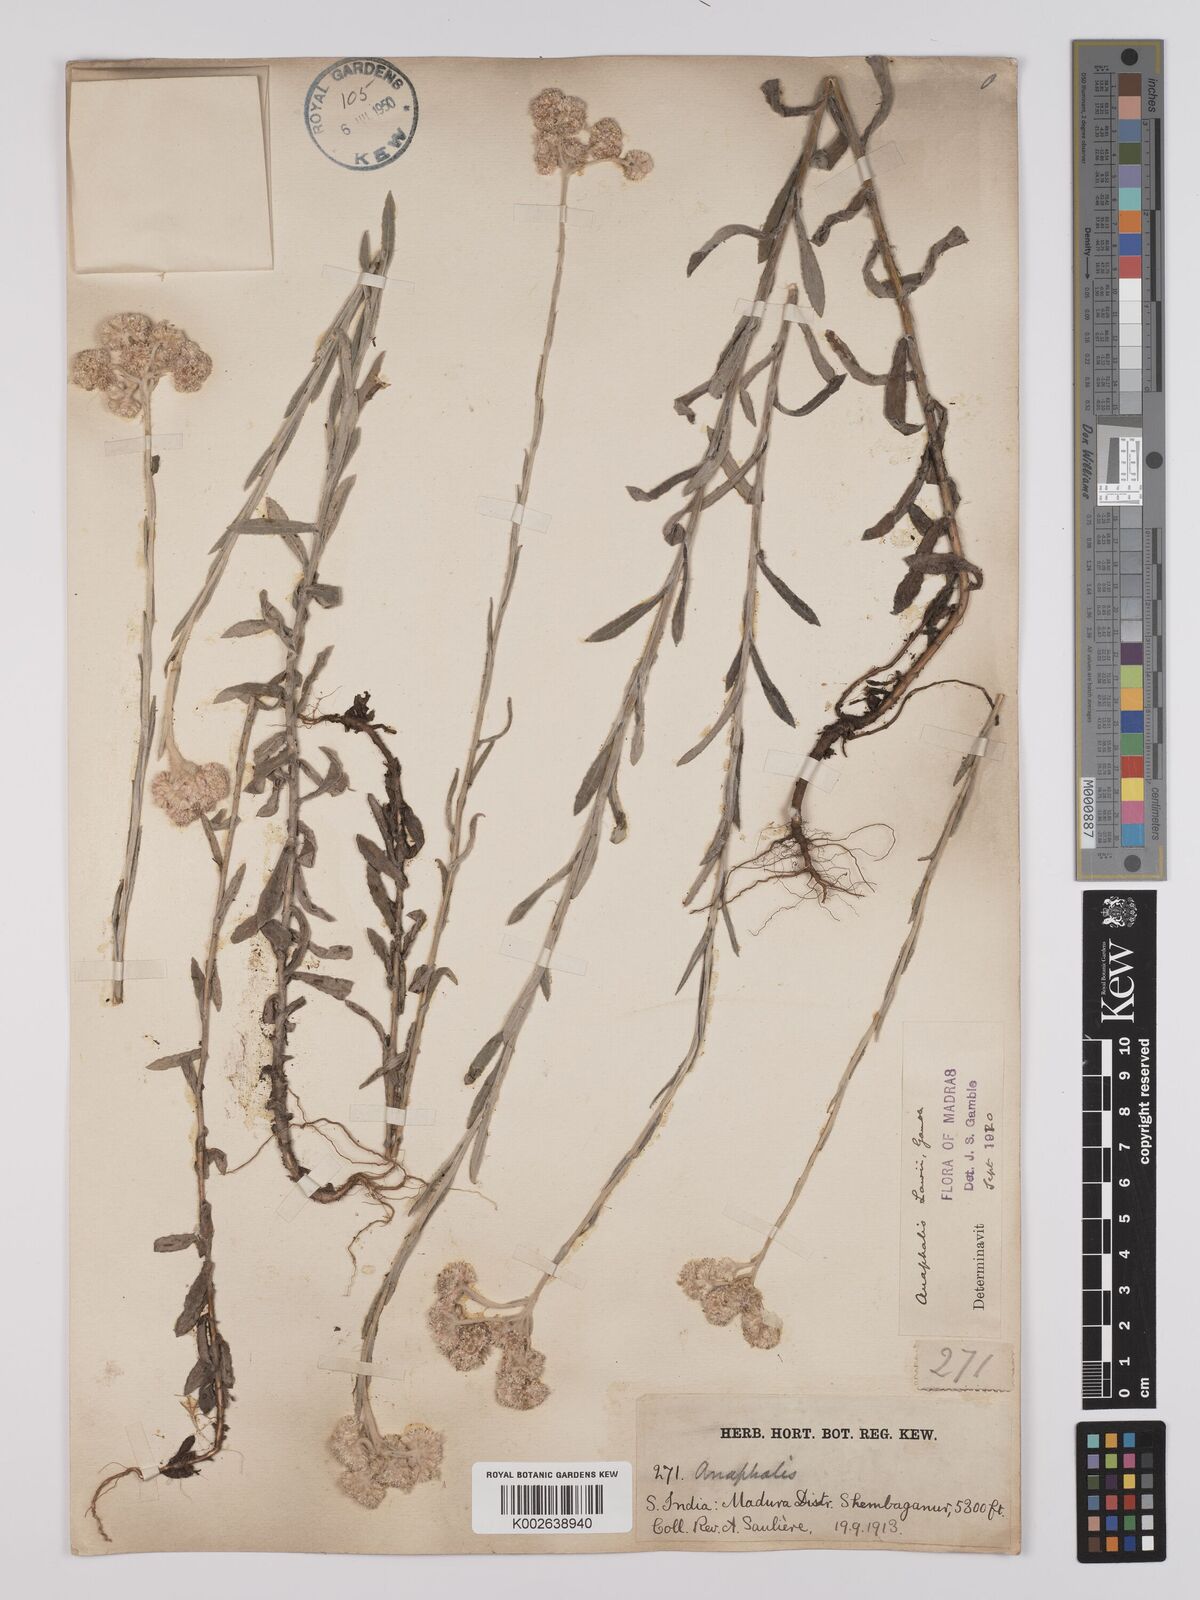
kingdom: Plantae
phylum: Tracheophyta
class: Magnoliopsida
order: Asterales
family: Asteraceae
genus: Anaphalis
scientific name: Anaphalis lawii
